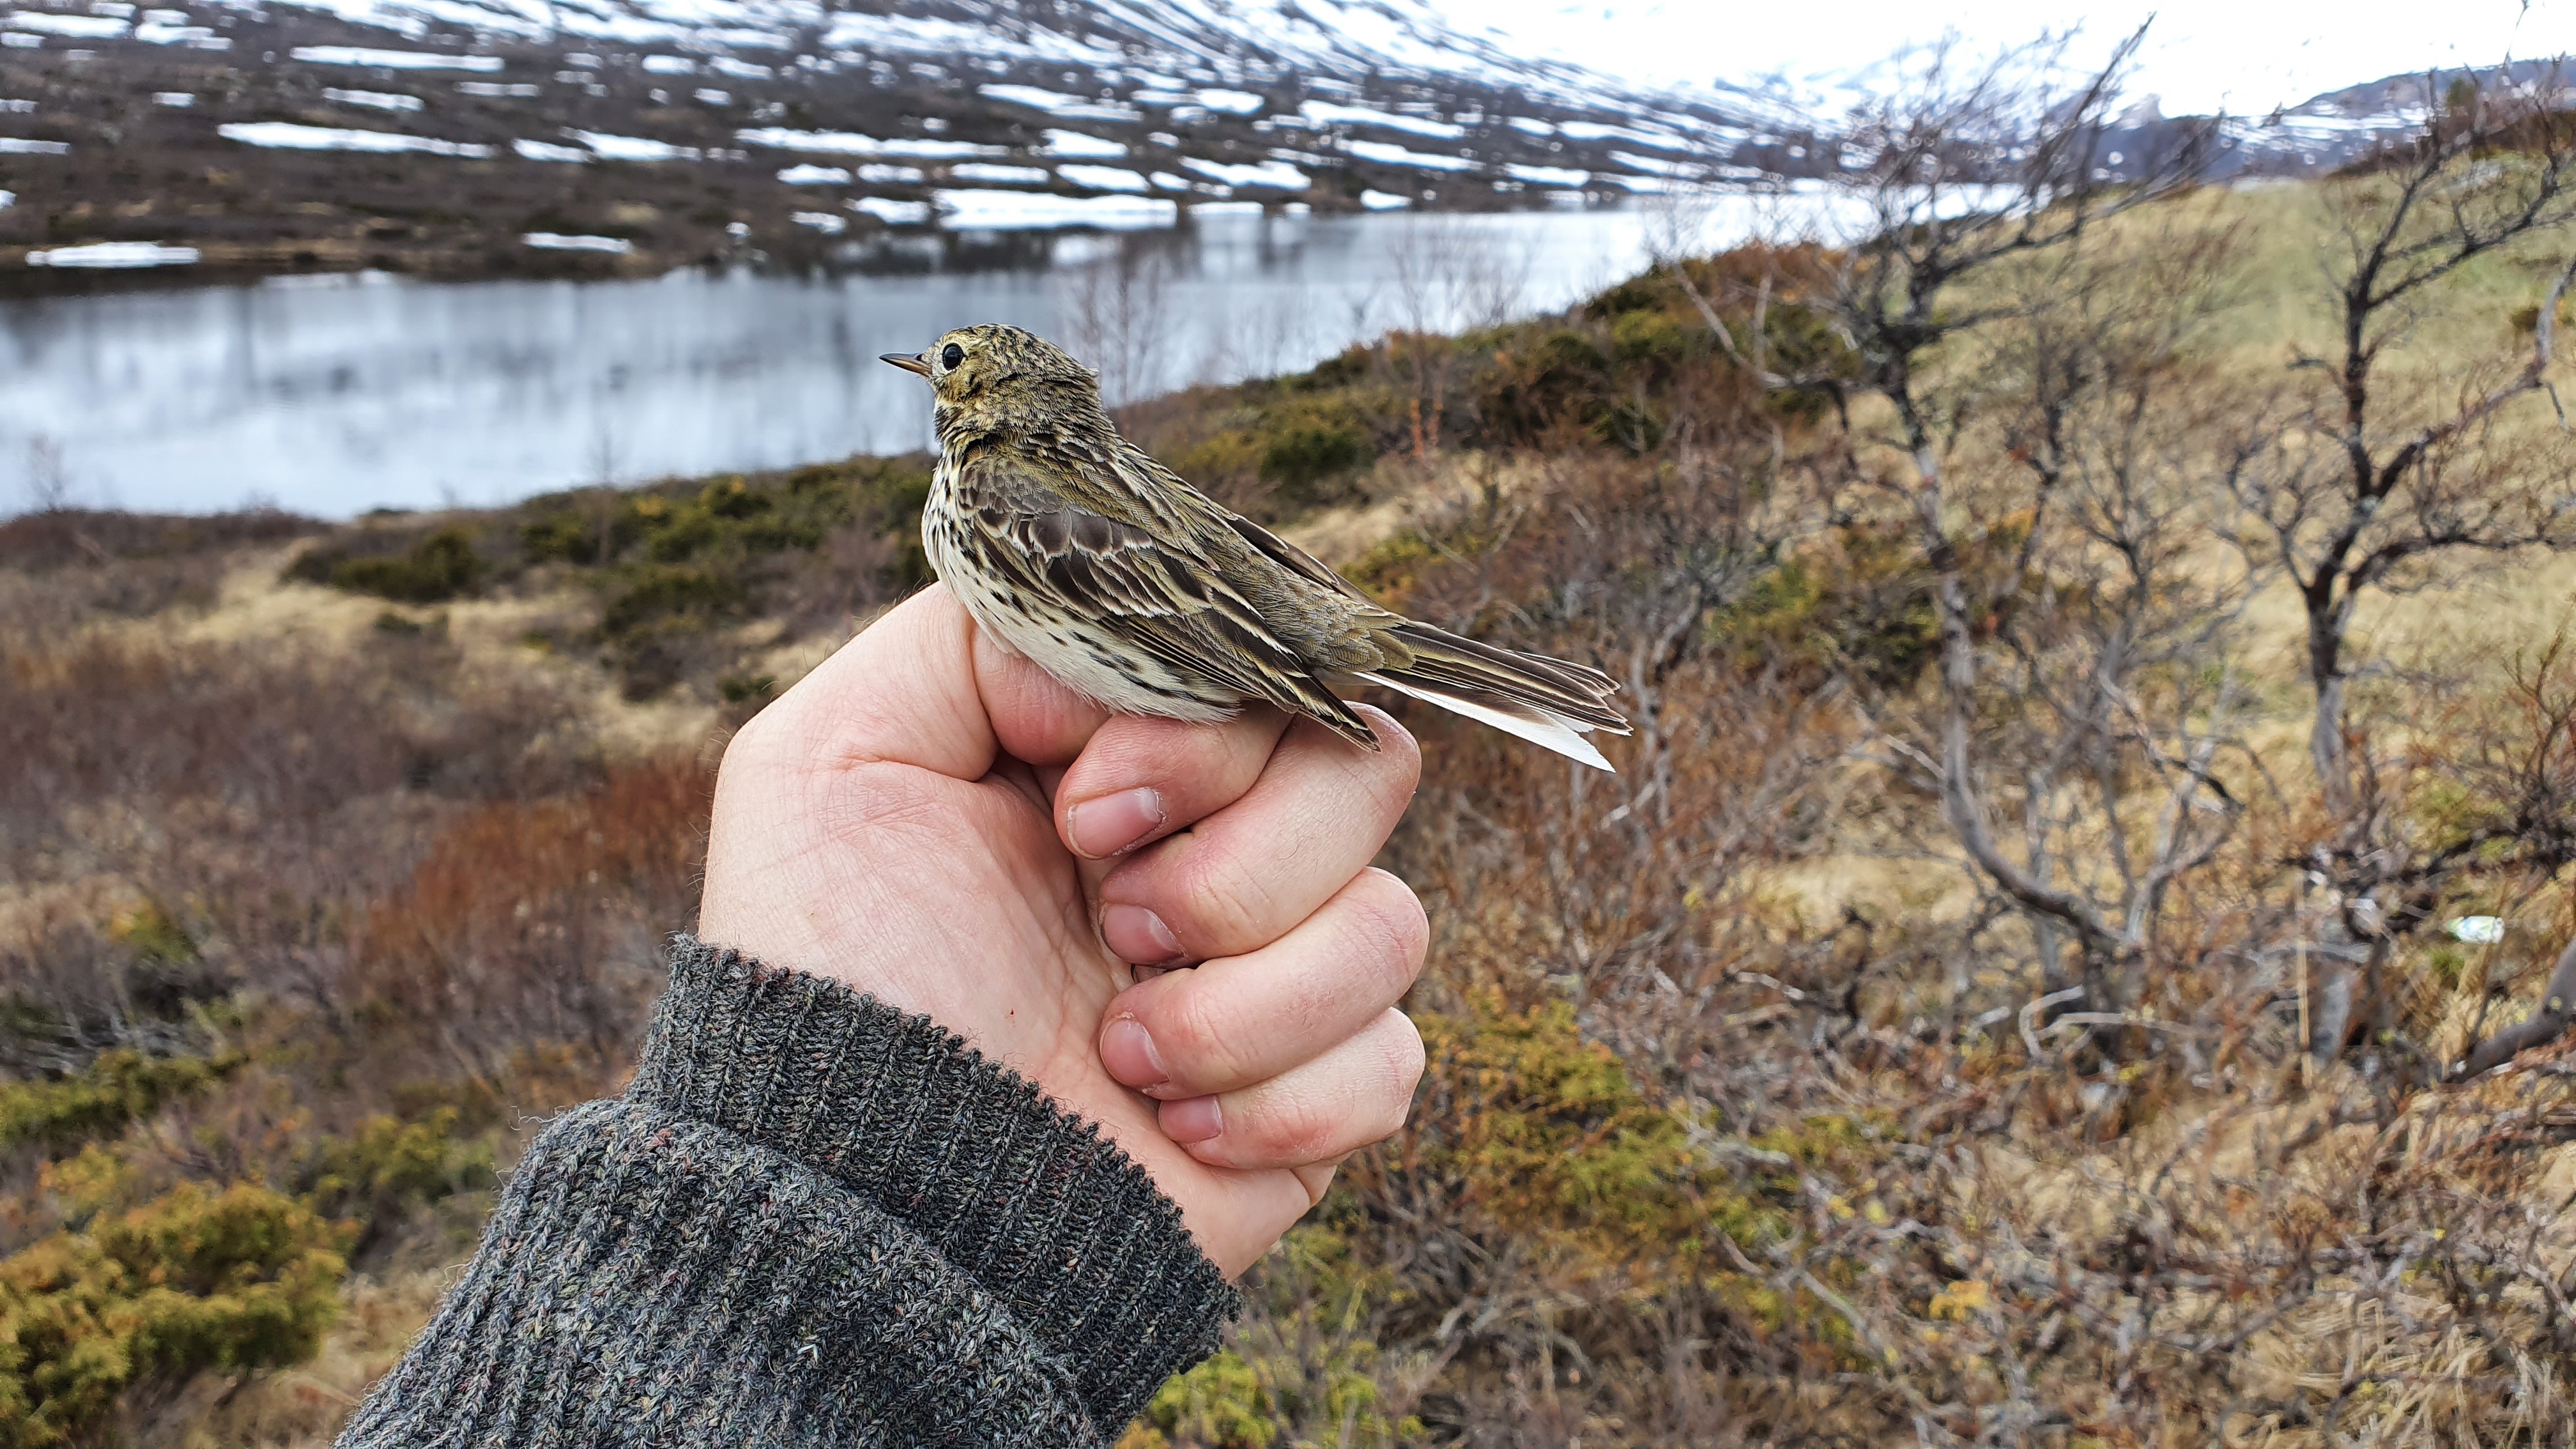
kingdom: Animalia
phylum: Chordata
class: Aves
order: Passeriformes
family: Motacillidae
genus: Anthus
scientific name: Anthus pratensis
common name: Meadow pipit
